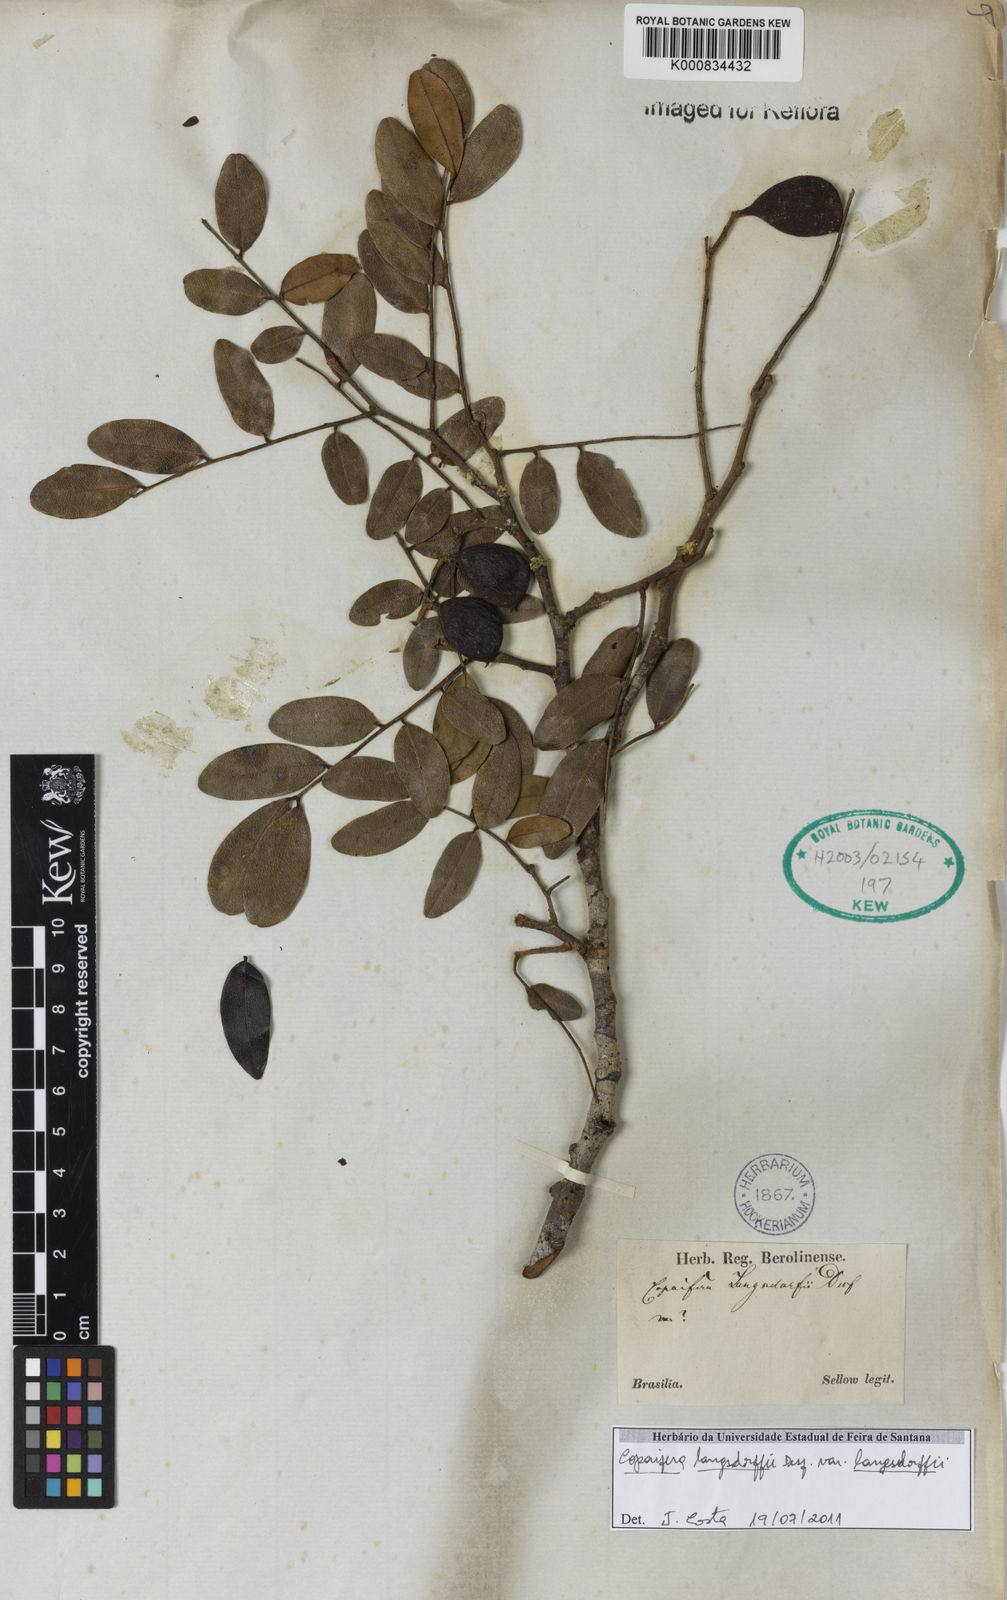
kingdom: Plantae
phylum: Tracheophyta
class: Magnoliopsida
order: Fabales
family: Fabaceae
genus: Copaifera
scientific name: Copaifera langsdorffii
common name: Brazilian diesel tree
